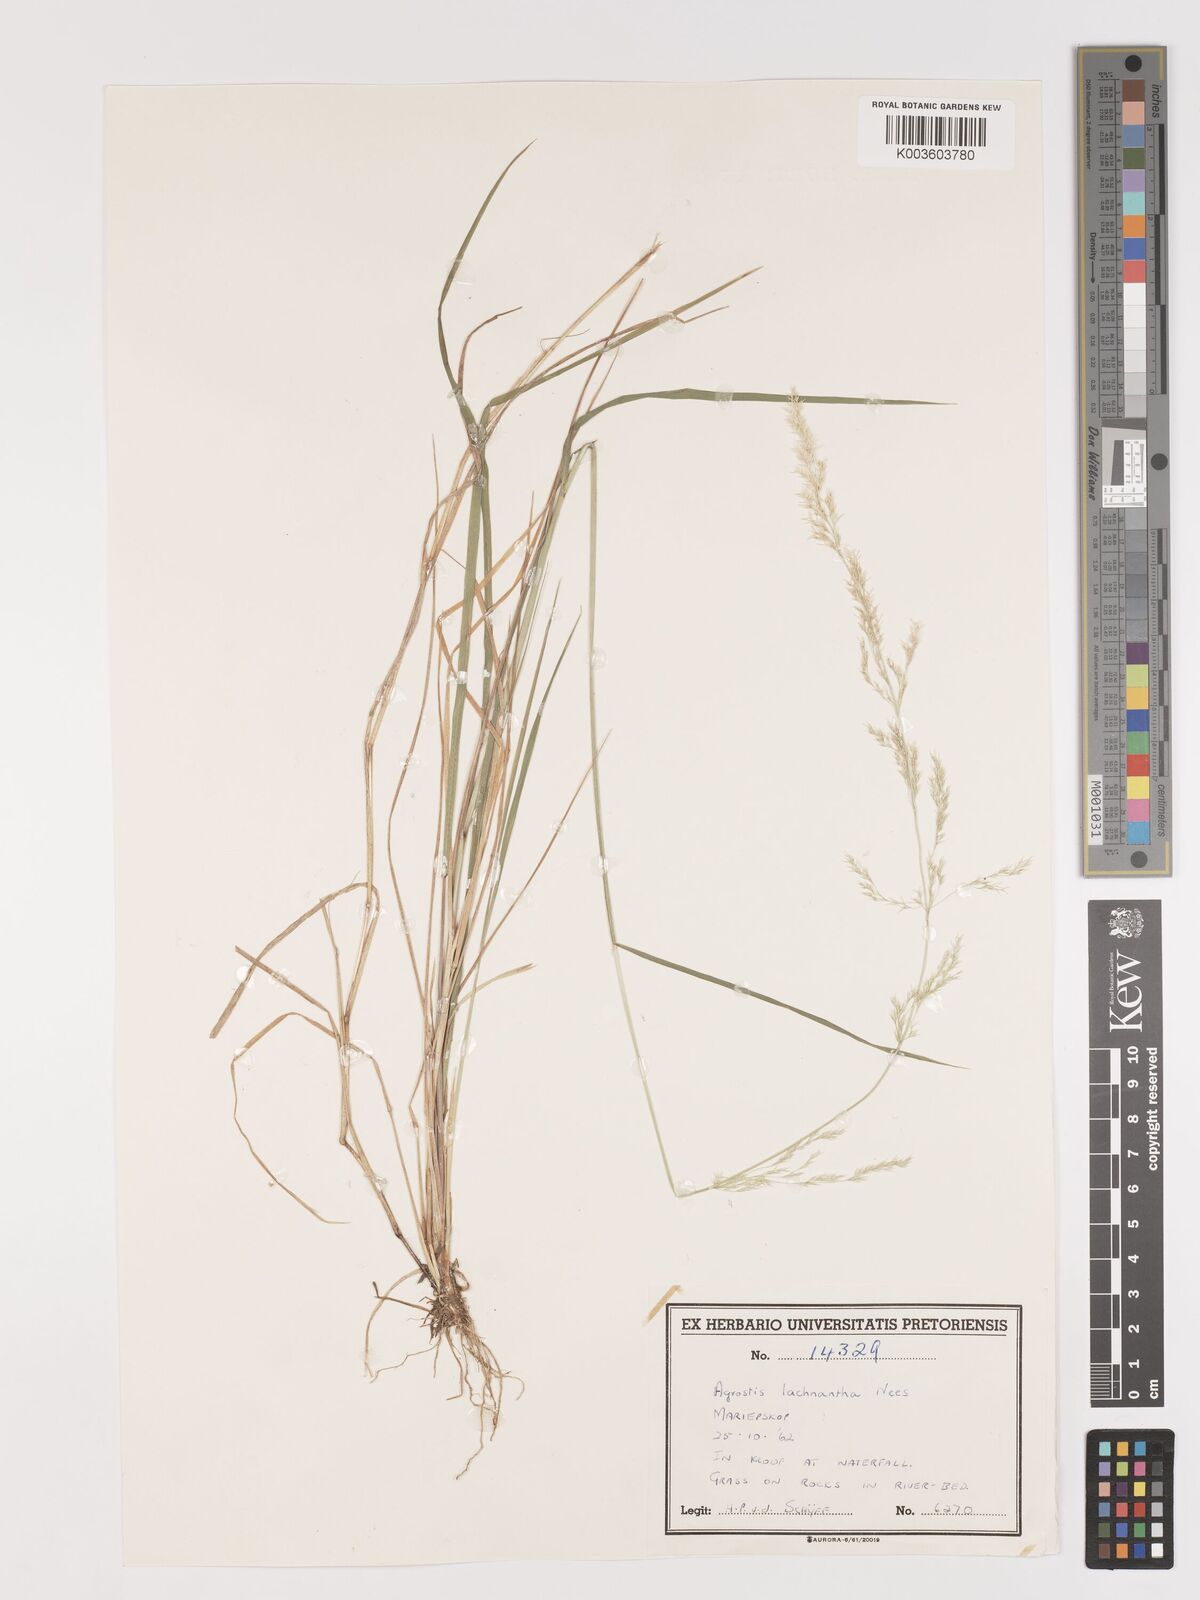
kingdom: Plantae
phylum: Tracheophyta
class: Liliopsida
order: Poales
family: Poaceae
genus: Lachnagrostis
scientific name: Lachnagrostis lachnantha
